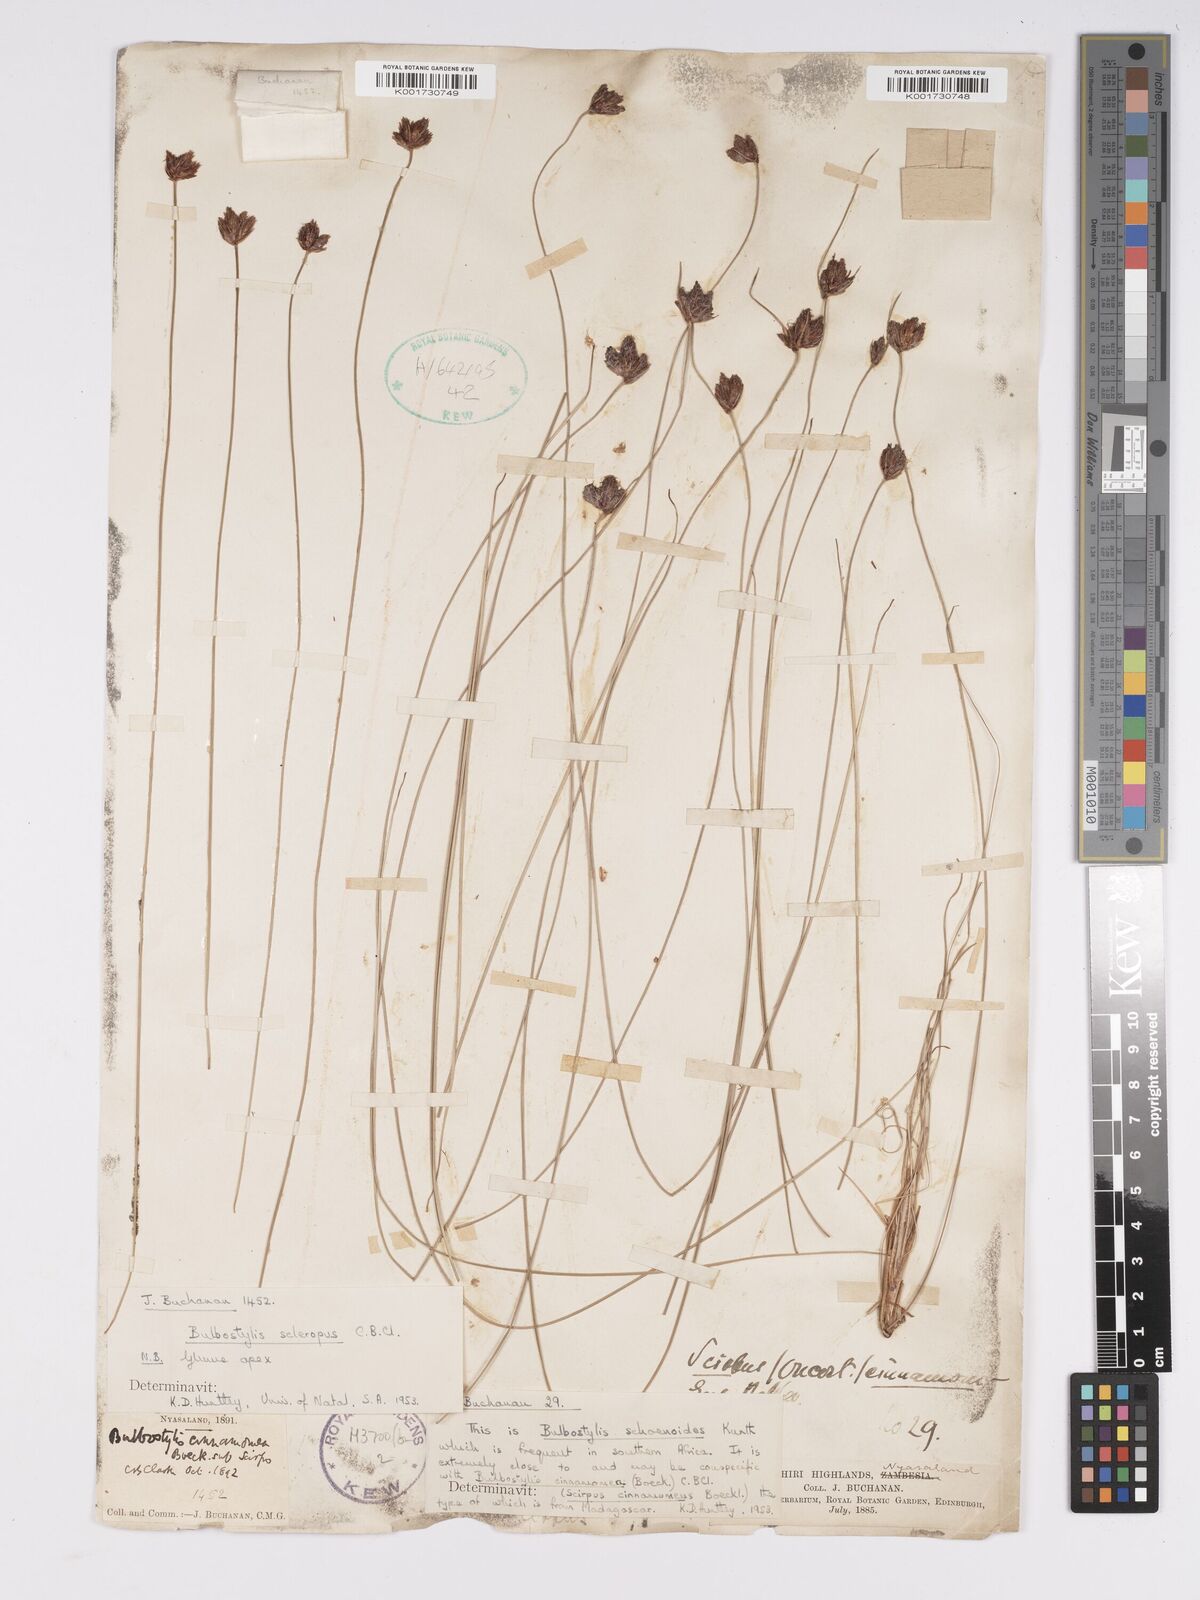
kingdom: Plantae
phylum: Tracheophyta
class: Liliopsida
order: Poales
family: Cyperaceae
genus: Bulbostylis
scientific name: Bulbostylis schoenoides
